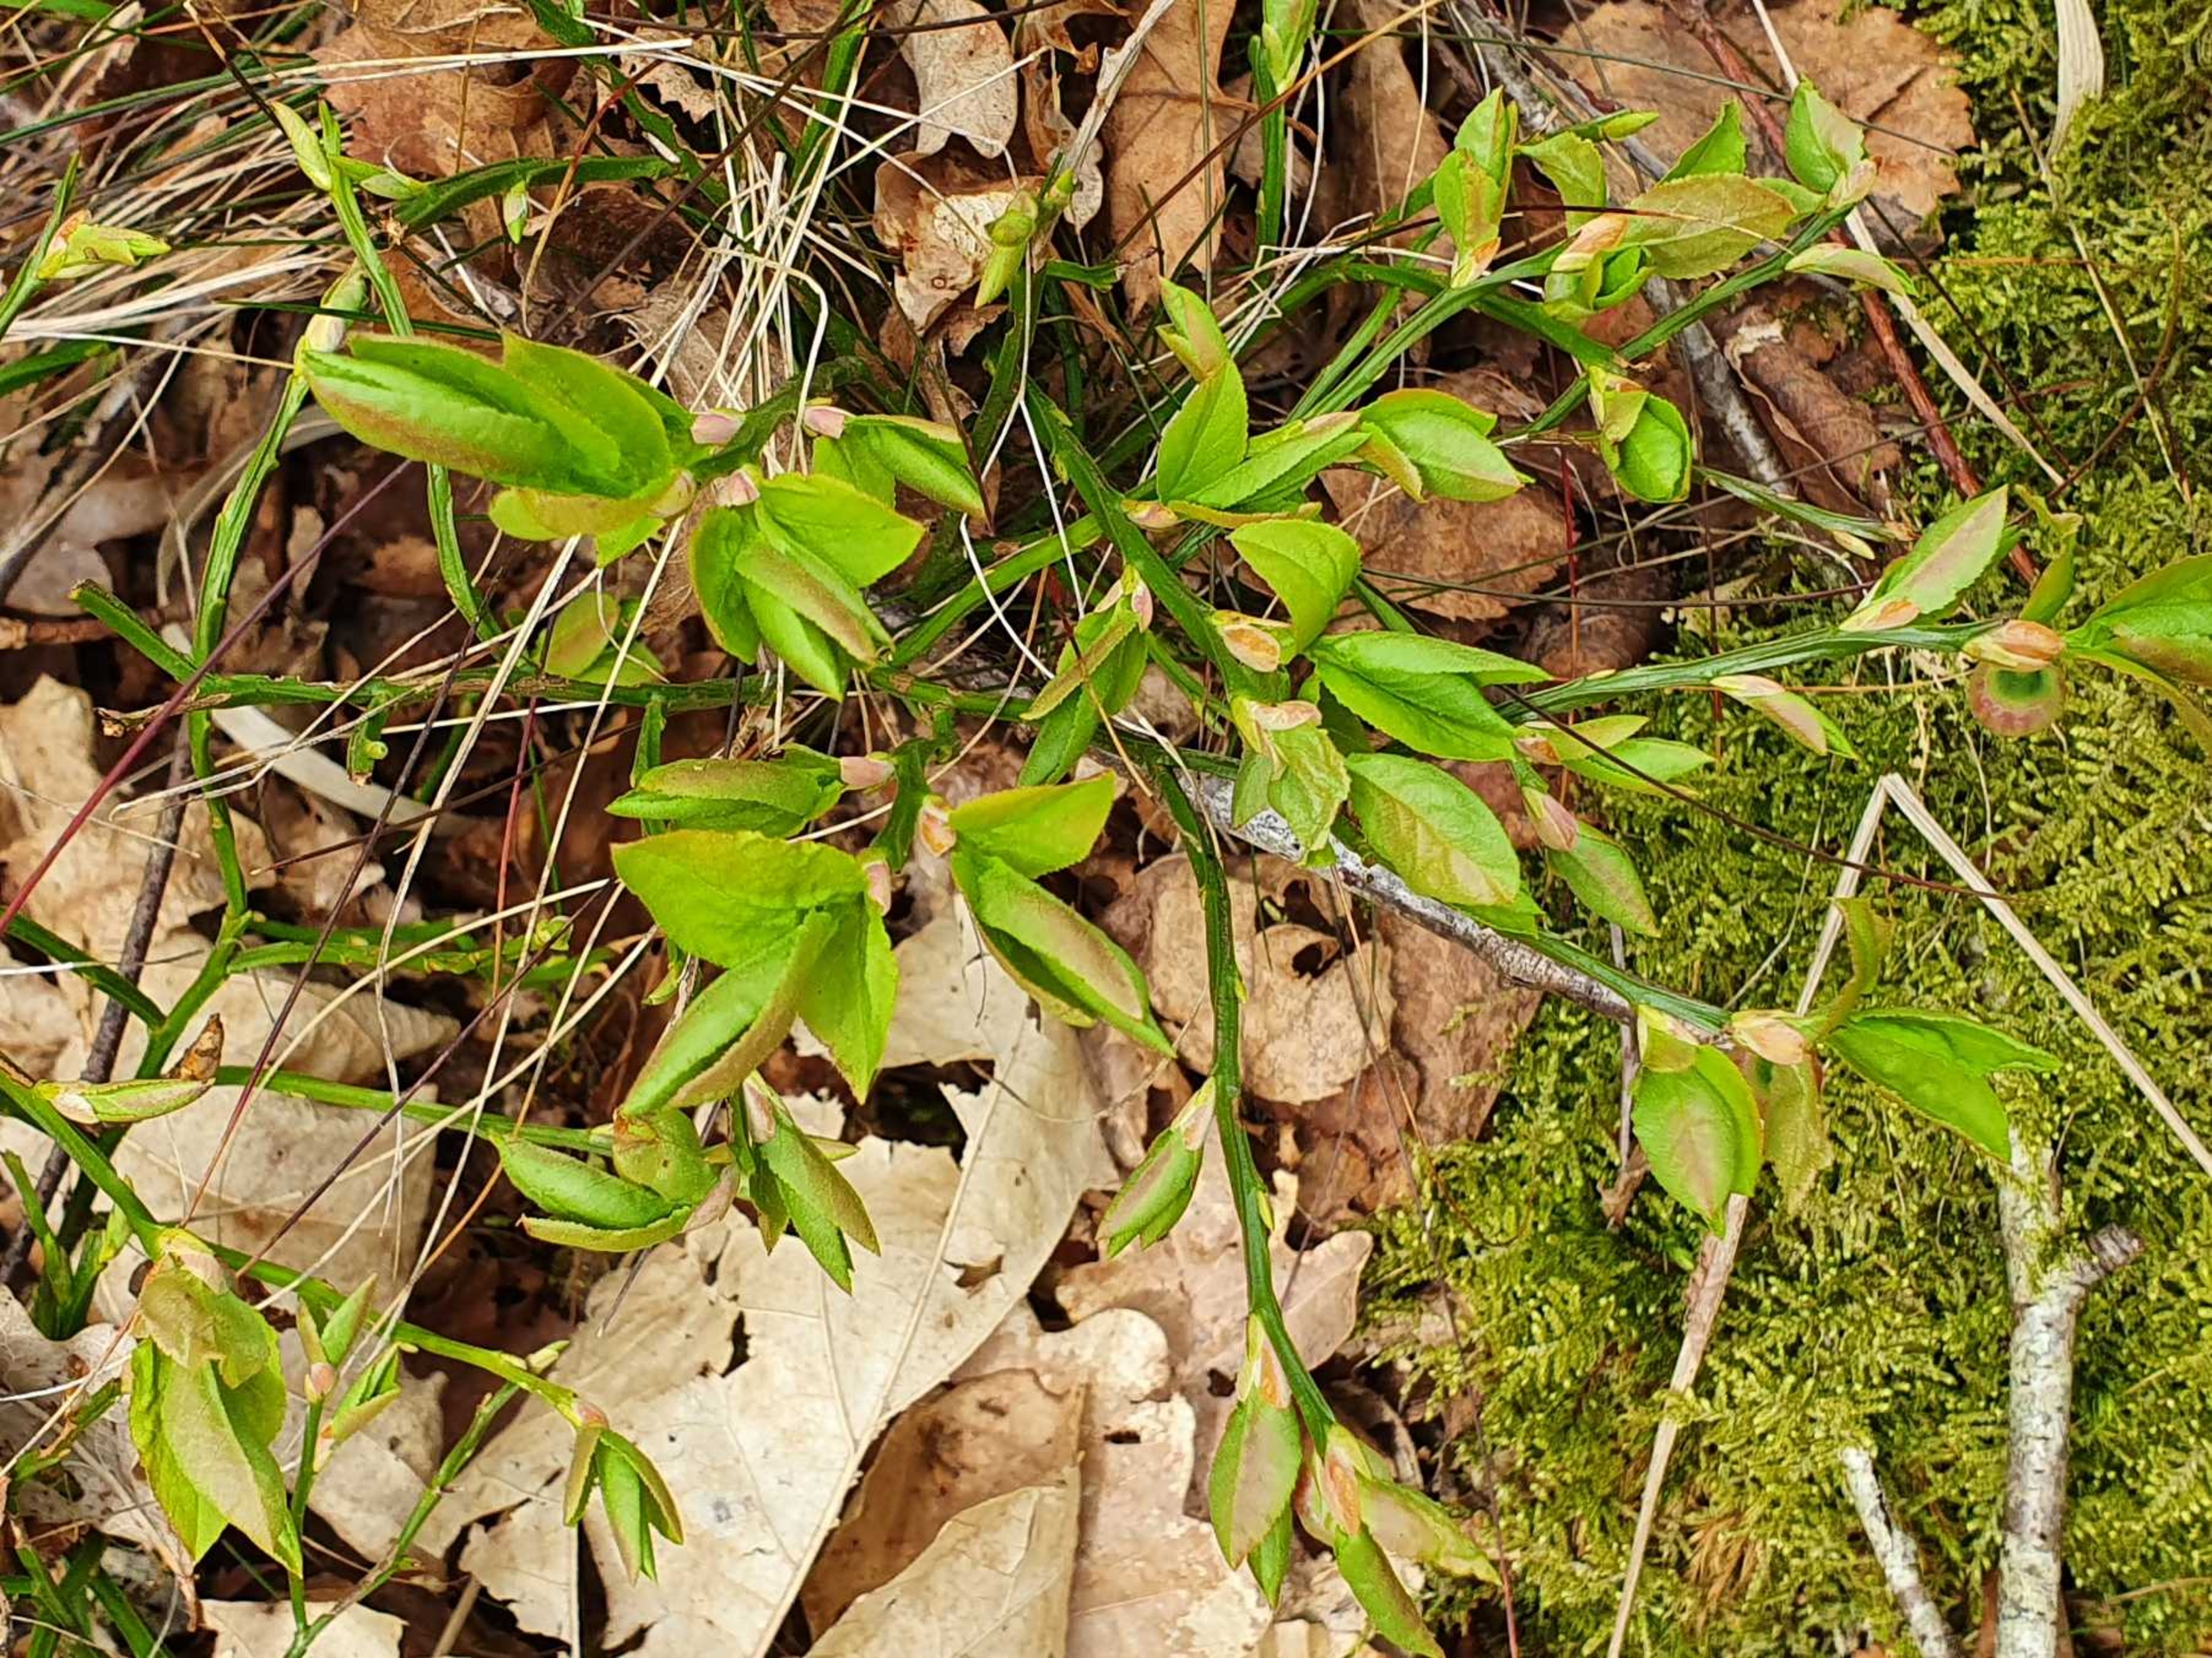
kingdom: Plantae
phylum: Tracheophyta
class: Magnoliopsida
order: Ericales
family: Ericaceae
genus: Vaccinium
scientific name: Vaccinium myrtillus
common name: Blåbær
